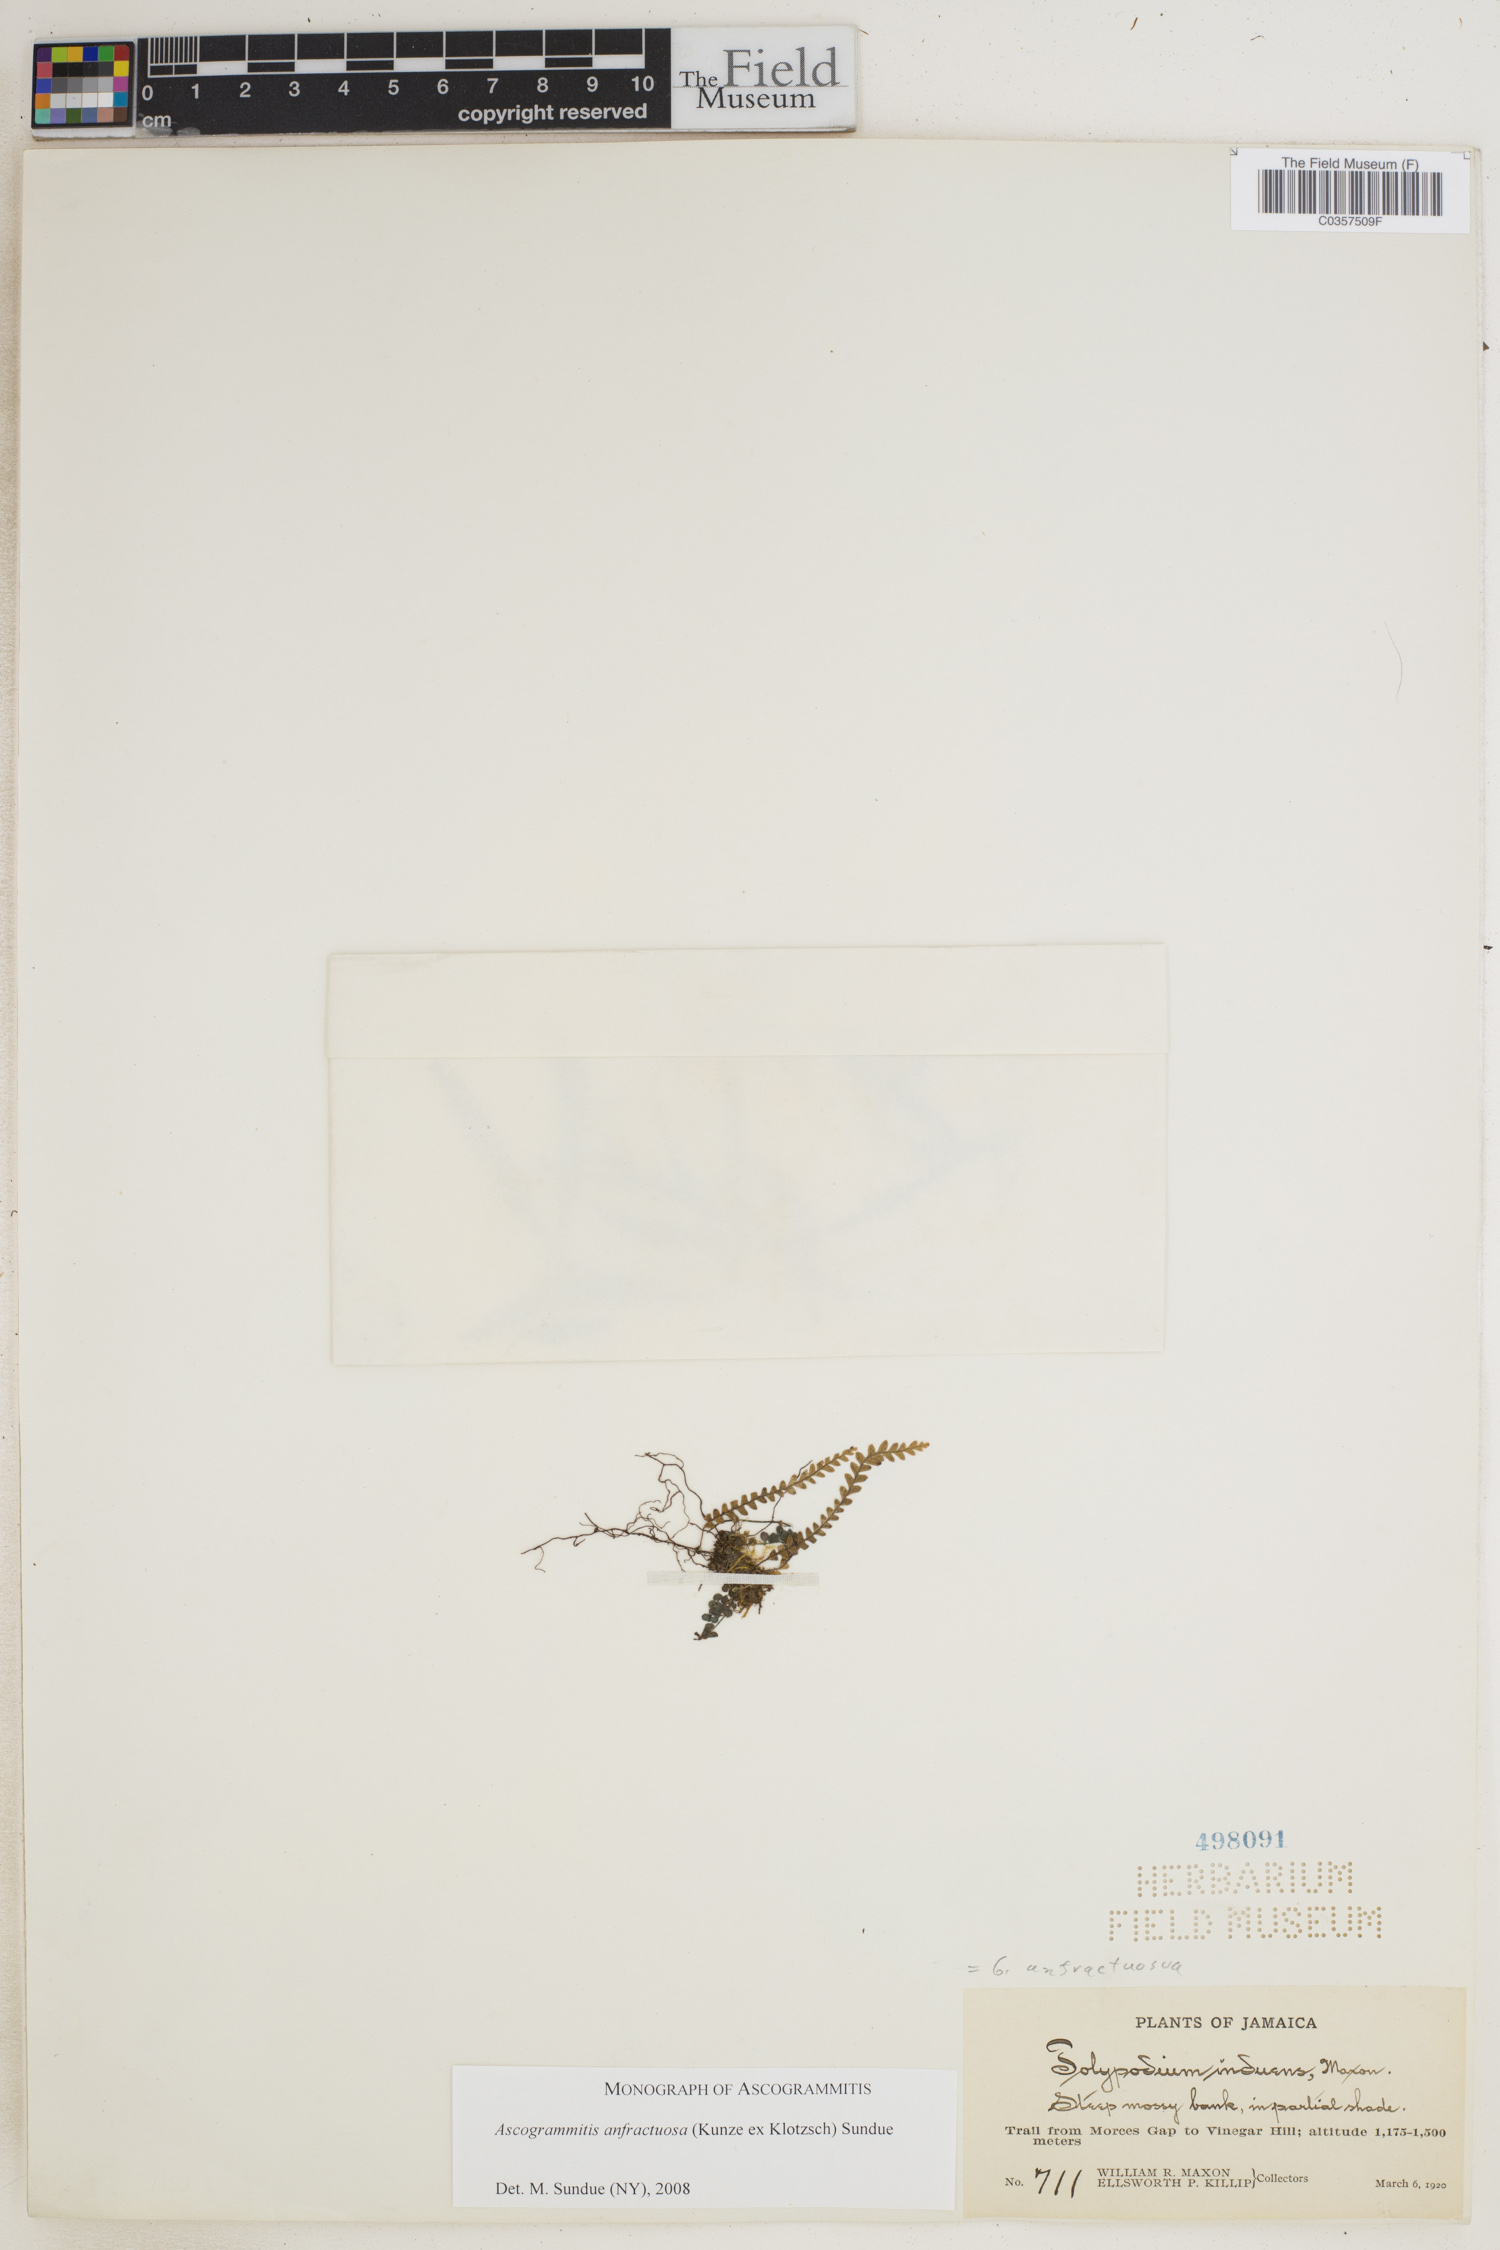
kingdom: Plantae
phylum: Tracheophyta
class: Polypodiopsida
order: Polypodiales
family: Polypodiaceae
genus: Ascogrammitis
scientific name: Ascogrammitis anfractuosa
